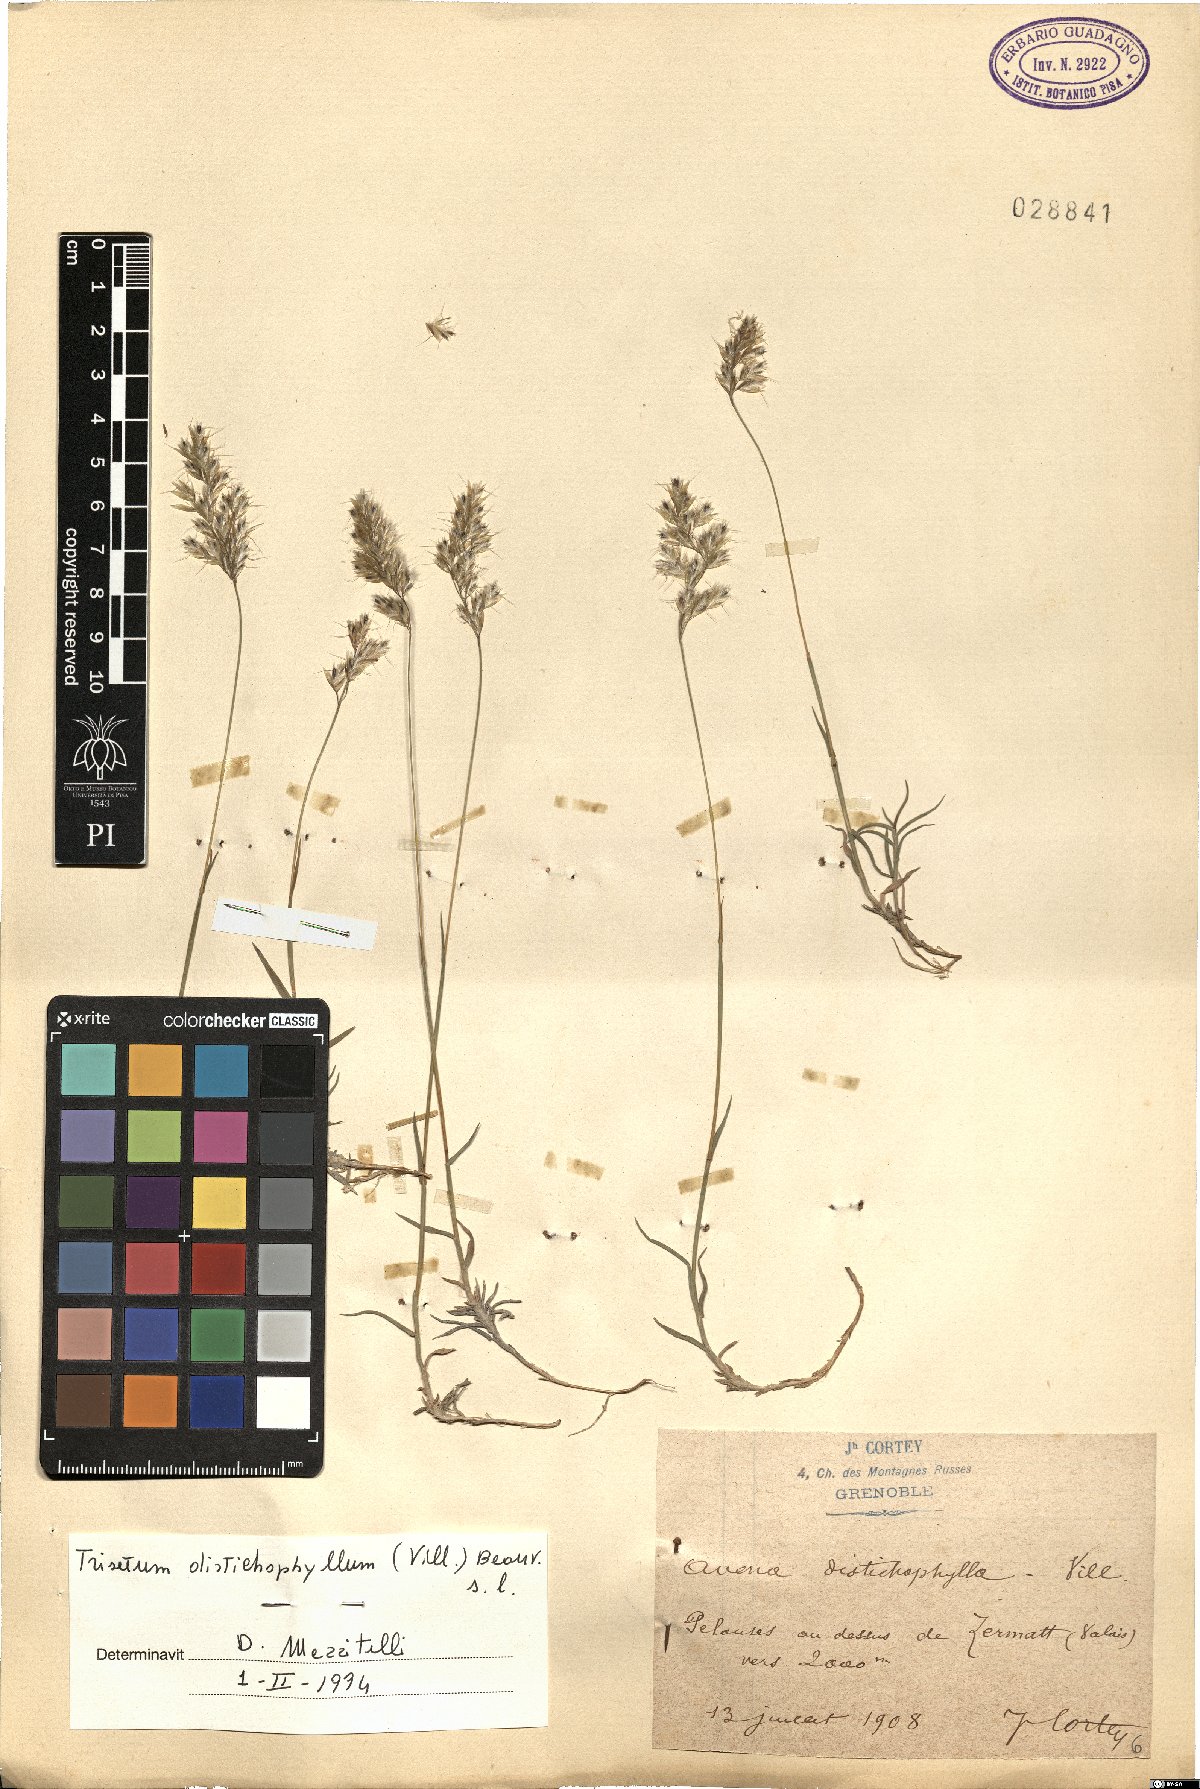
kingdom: Plantae
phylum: Tracheophyta
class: Liliopsida
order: Poales
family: Poaceae
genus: Acrospelion
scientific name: Acrospelion distichophyllum
